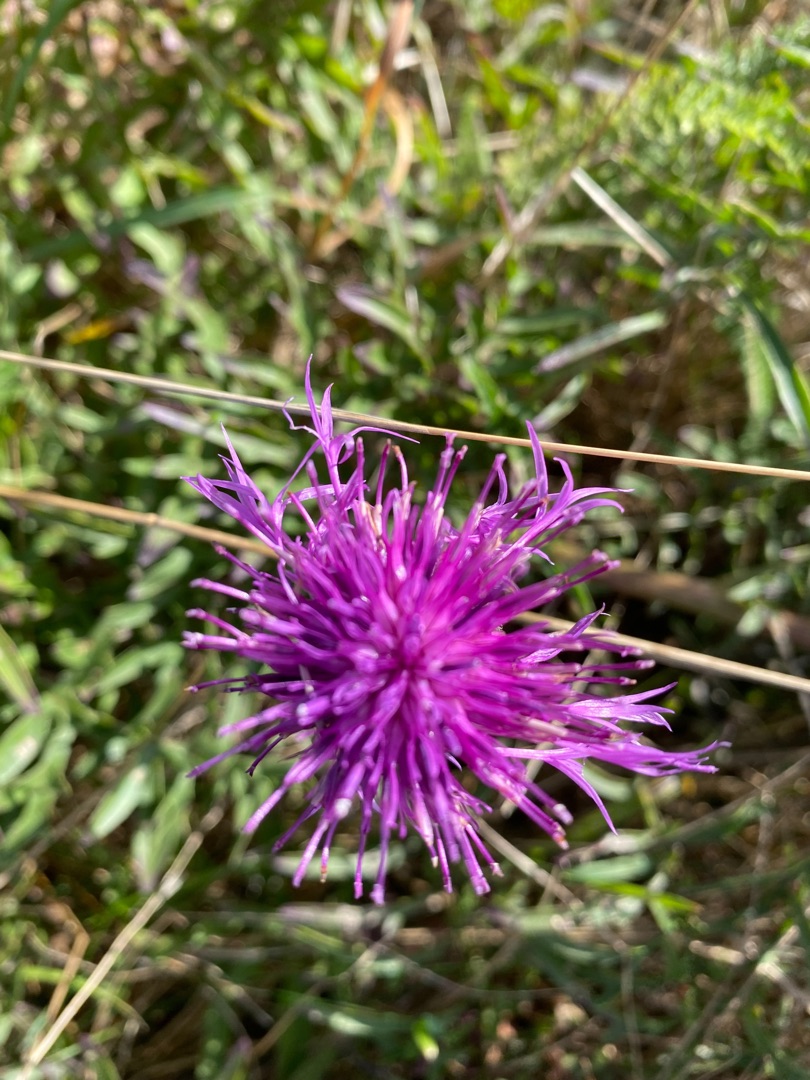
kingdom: Plantae
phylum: Tracheophyta
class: Magnoliopsida
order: Asterales
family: Asteraceae
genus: Centaurea
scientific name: Centaurea scabiosa
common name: Stor knopurt
